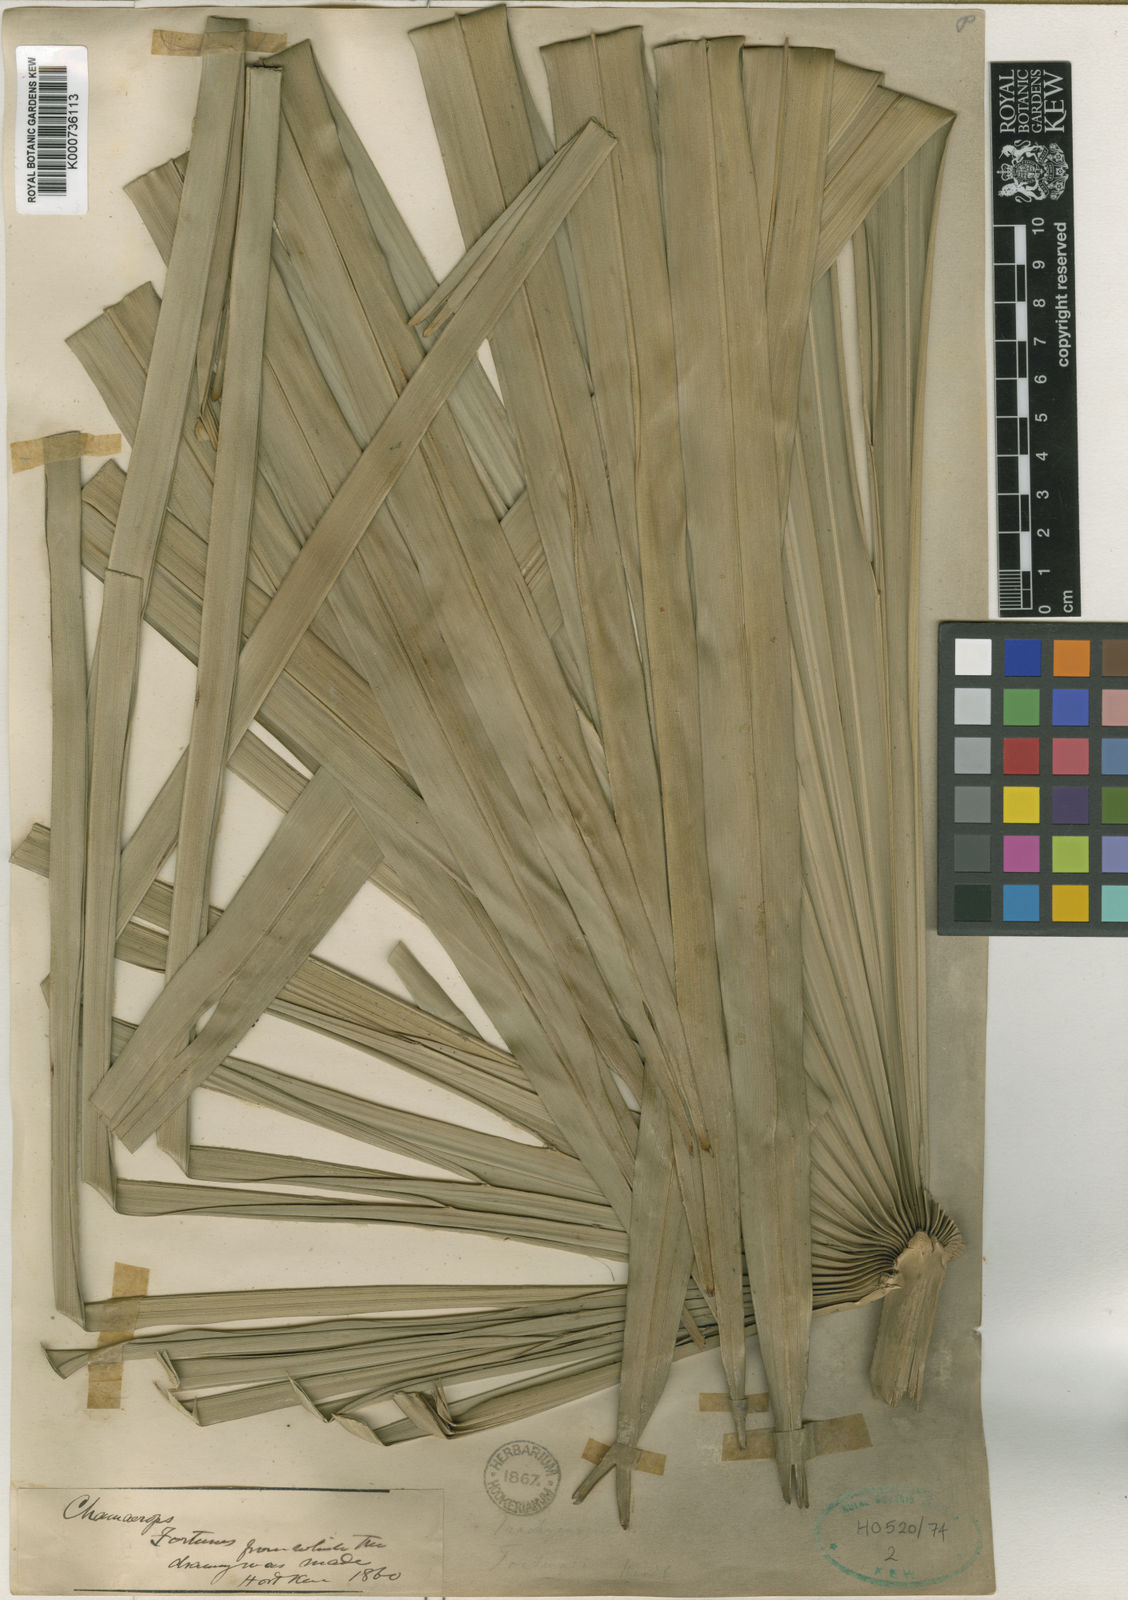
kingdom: Plantae
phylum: Tracheophyta
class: Liliopsida
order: Arecales
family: Arecaceae
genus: Trachycarpus
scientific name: Trachycarpus fortunei
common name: Chusan palm
